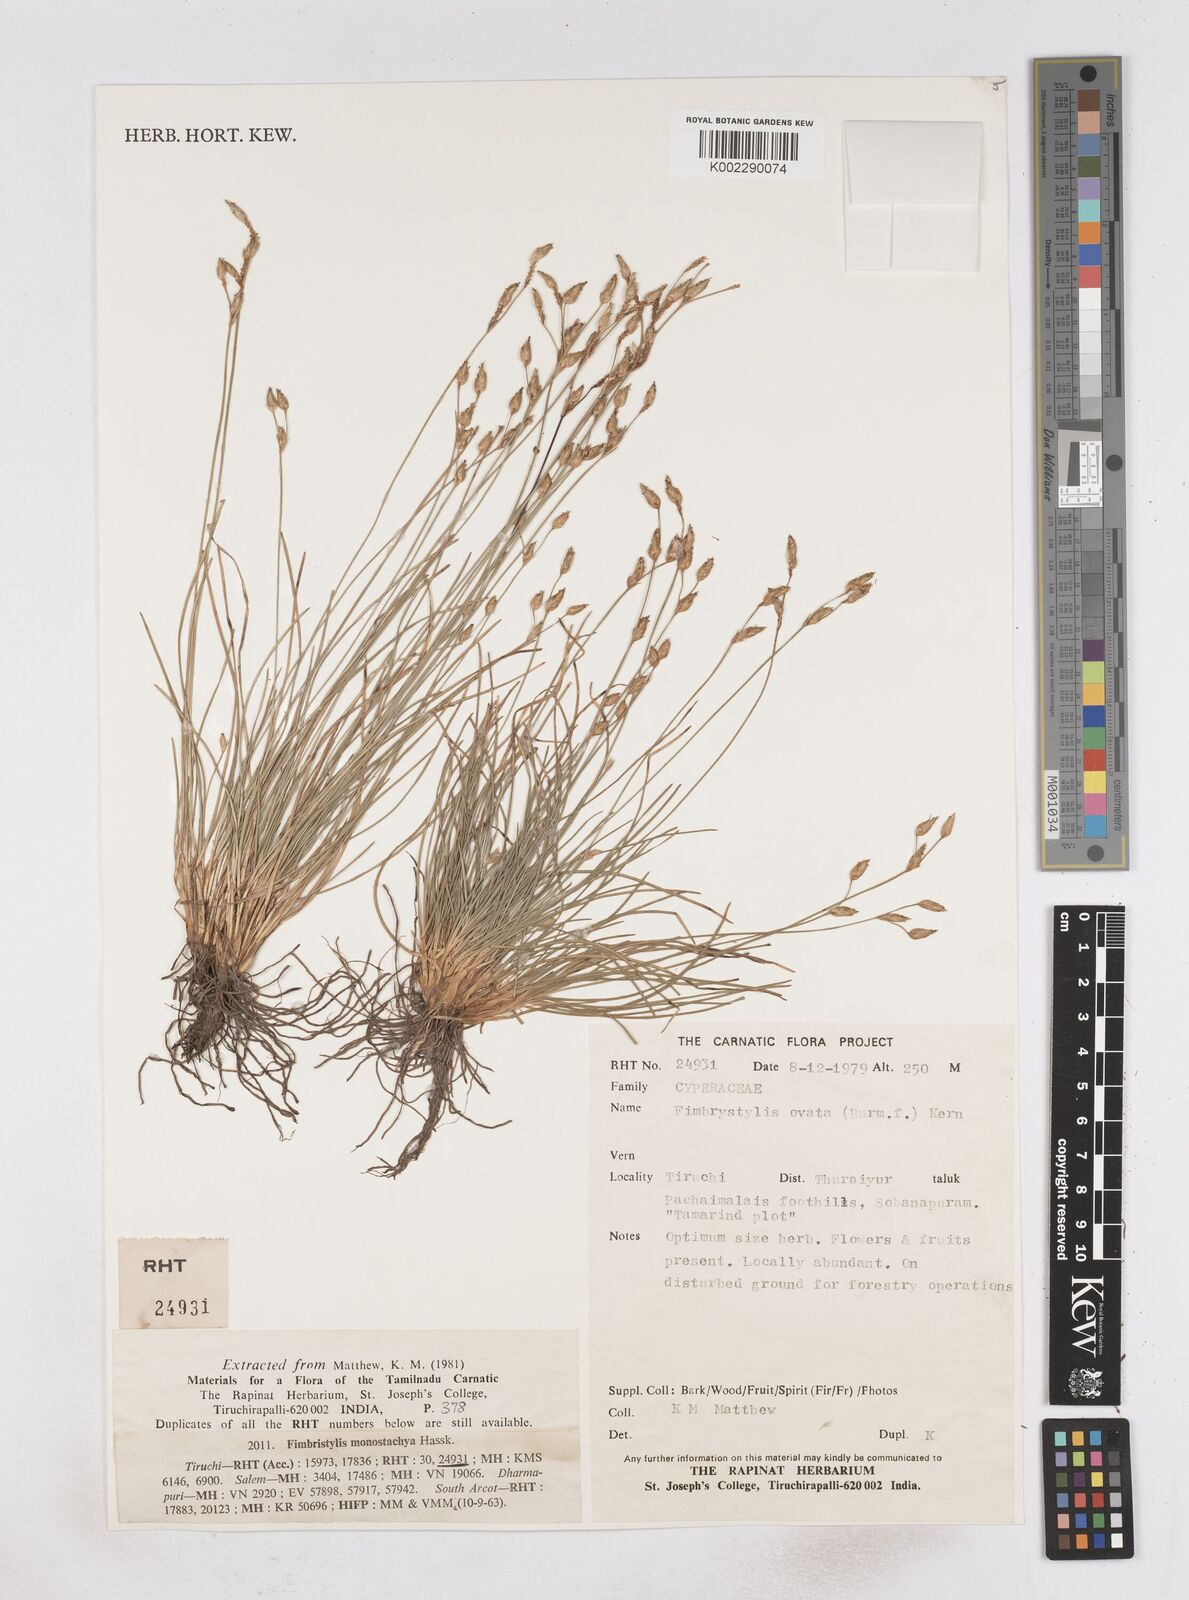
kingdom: Plantae
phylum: Tracheophyta
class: Liliopsida
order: Poales
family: Cyperaceae
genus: Abildgaardia
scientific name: Abildgaardia ovata
